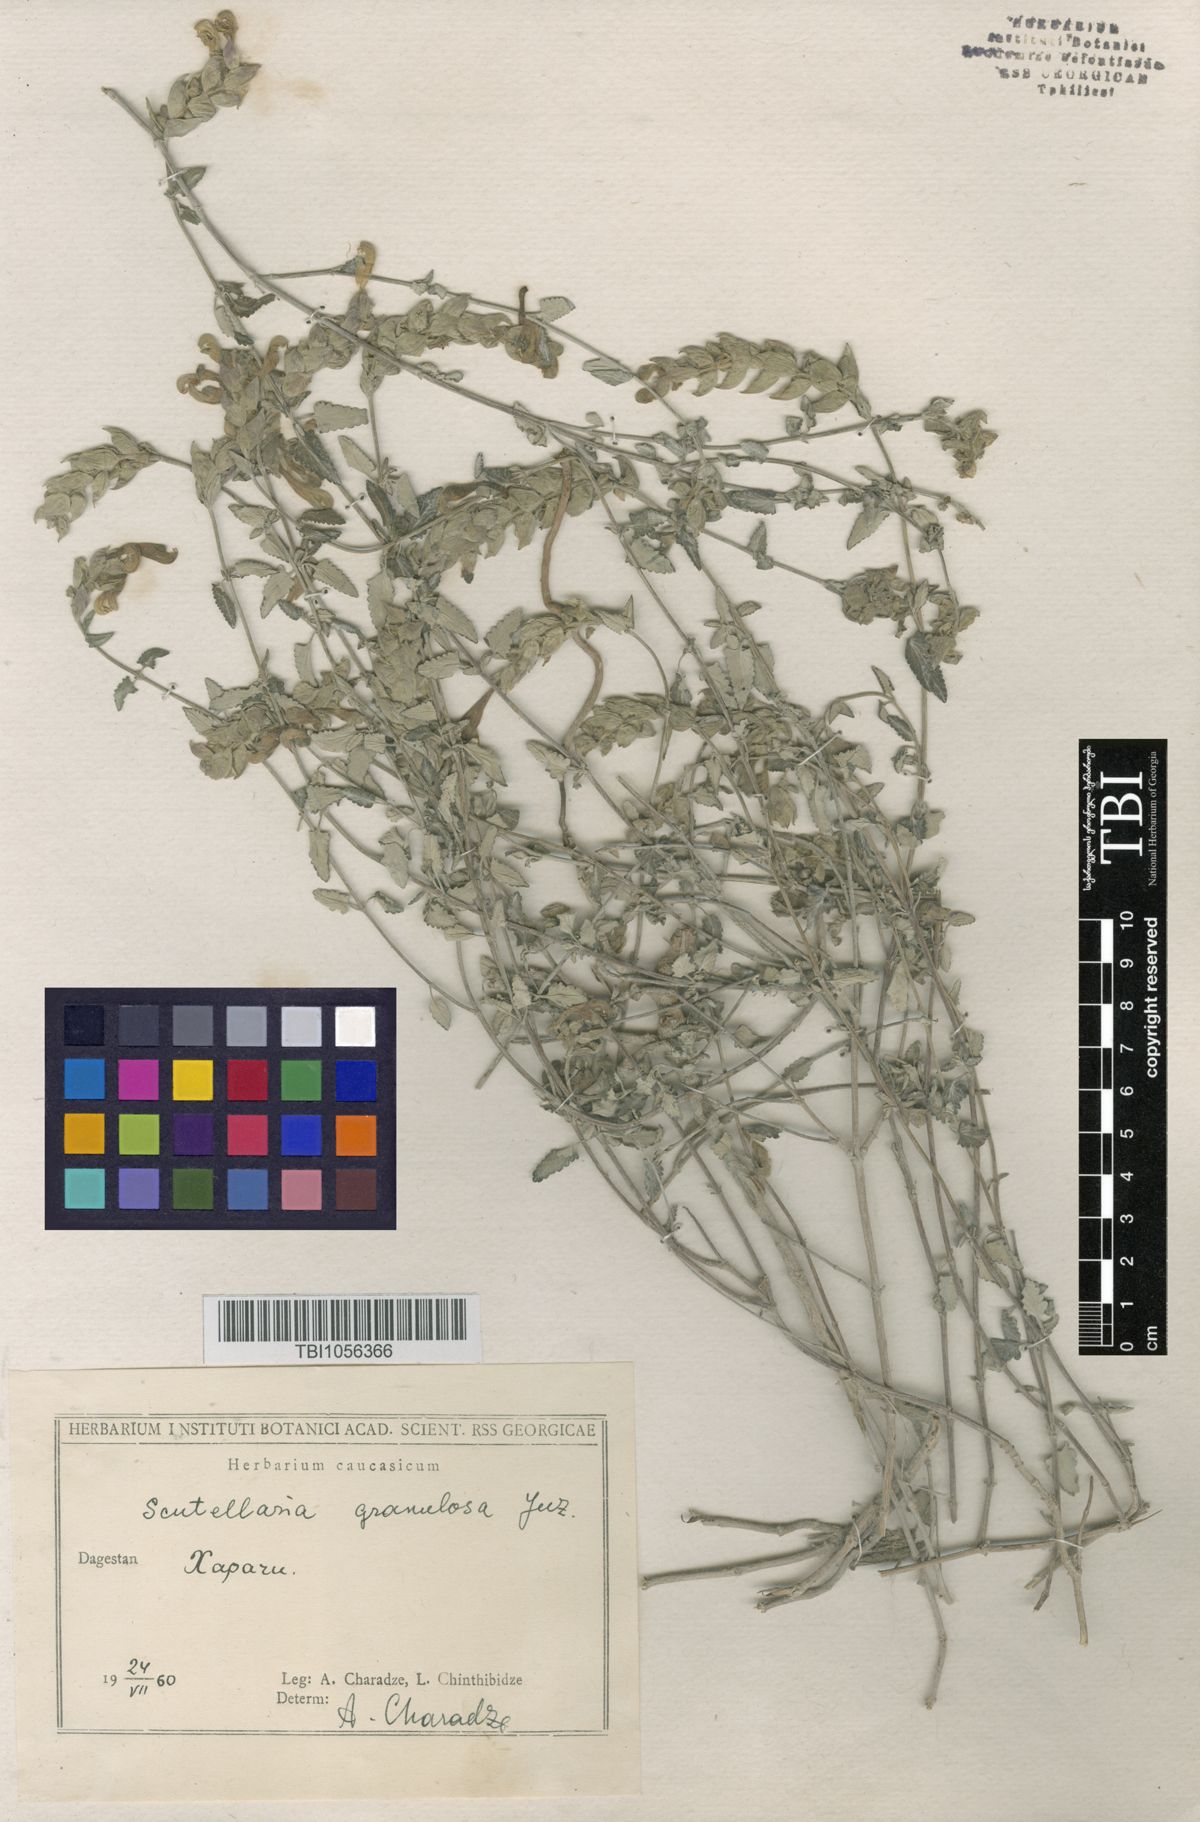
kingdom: Plantae
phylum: Tracheophyta
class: Magnoliopsida
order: Lamiales
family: Lamiaceae
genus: Scutellaria
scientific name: Scutellaria granulosa
